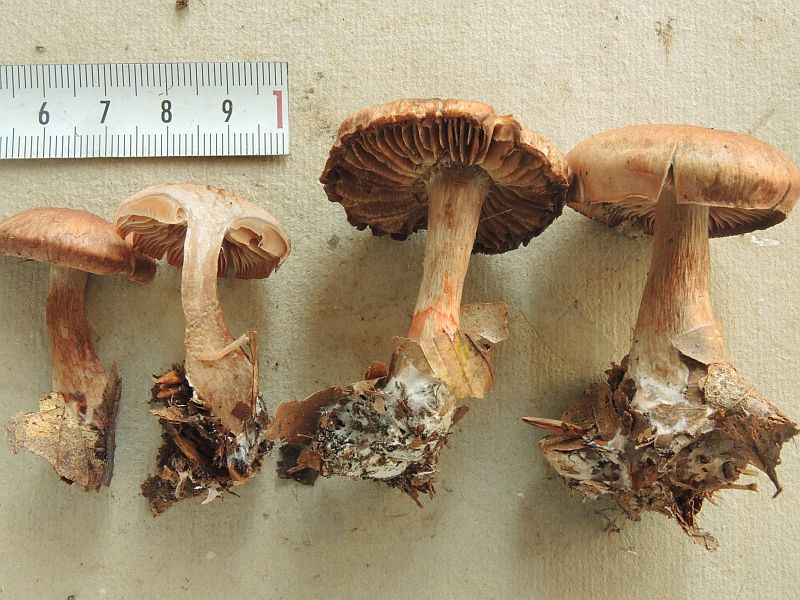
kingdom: Fungi
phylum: Basidiomycota
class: Agaricomycetes
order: Agaricales
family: Cortinariaceae
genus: Cortinarius
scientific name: Cortinarius paragaudis
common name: rødbæltet slørhat
